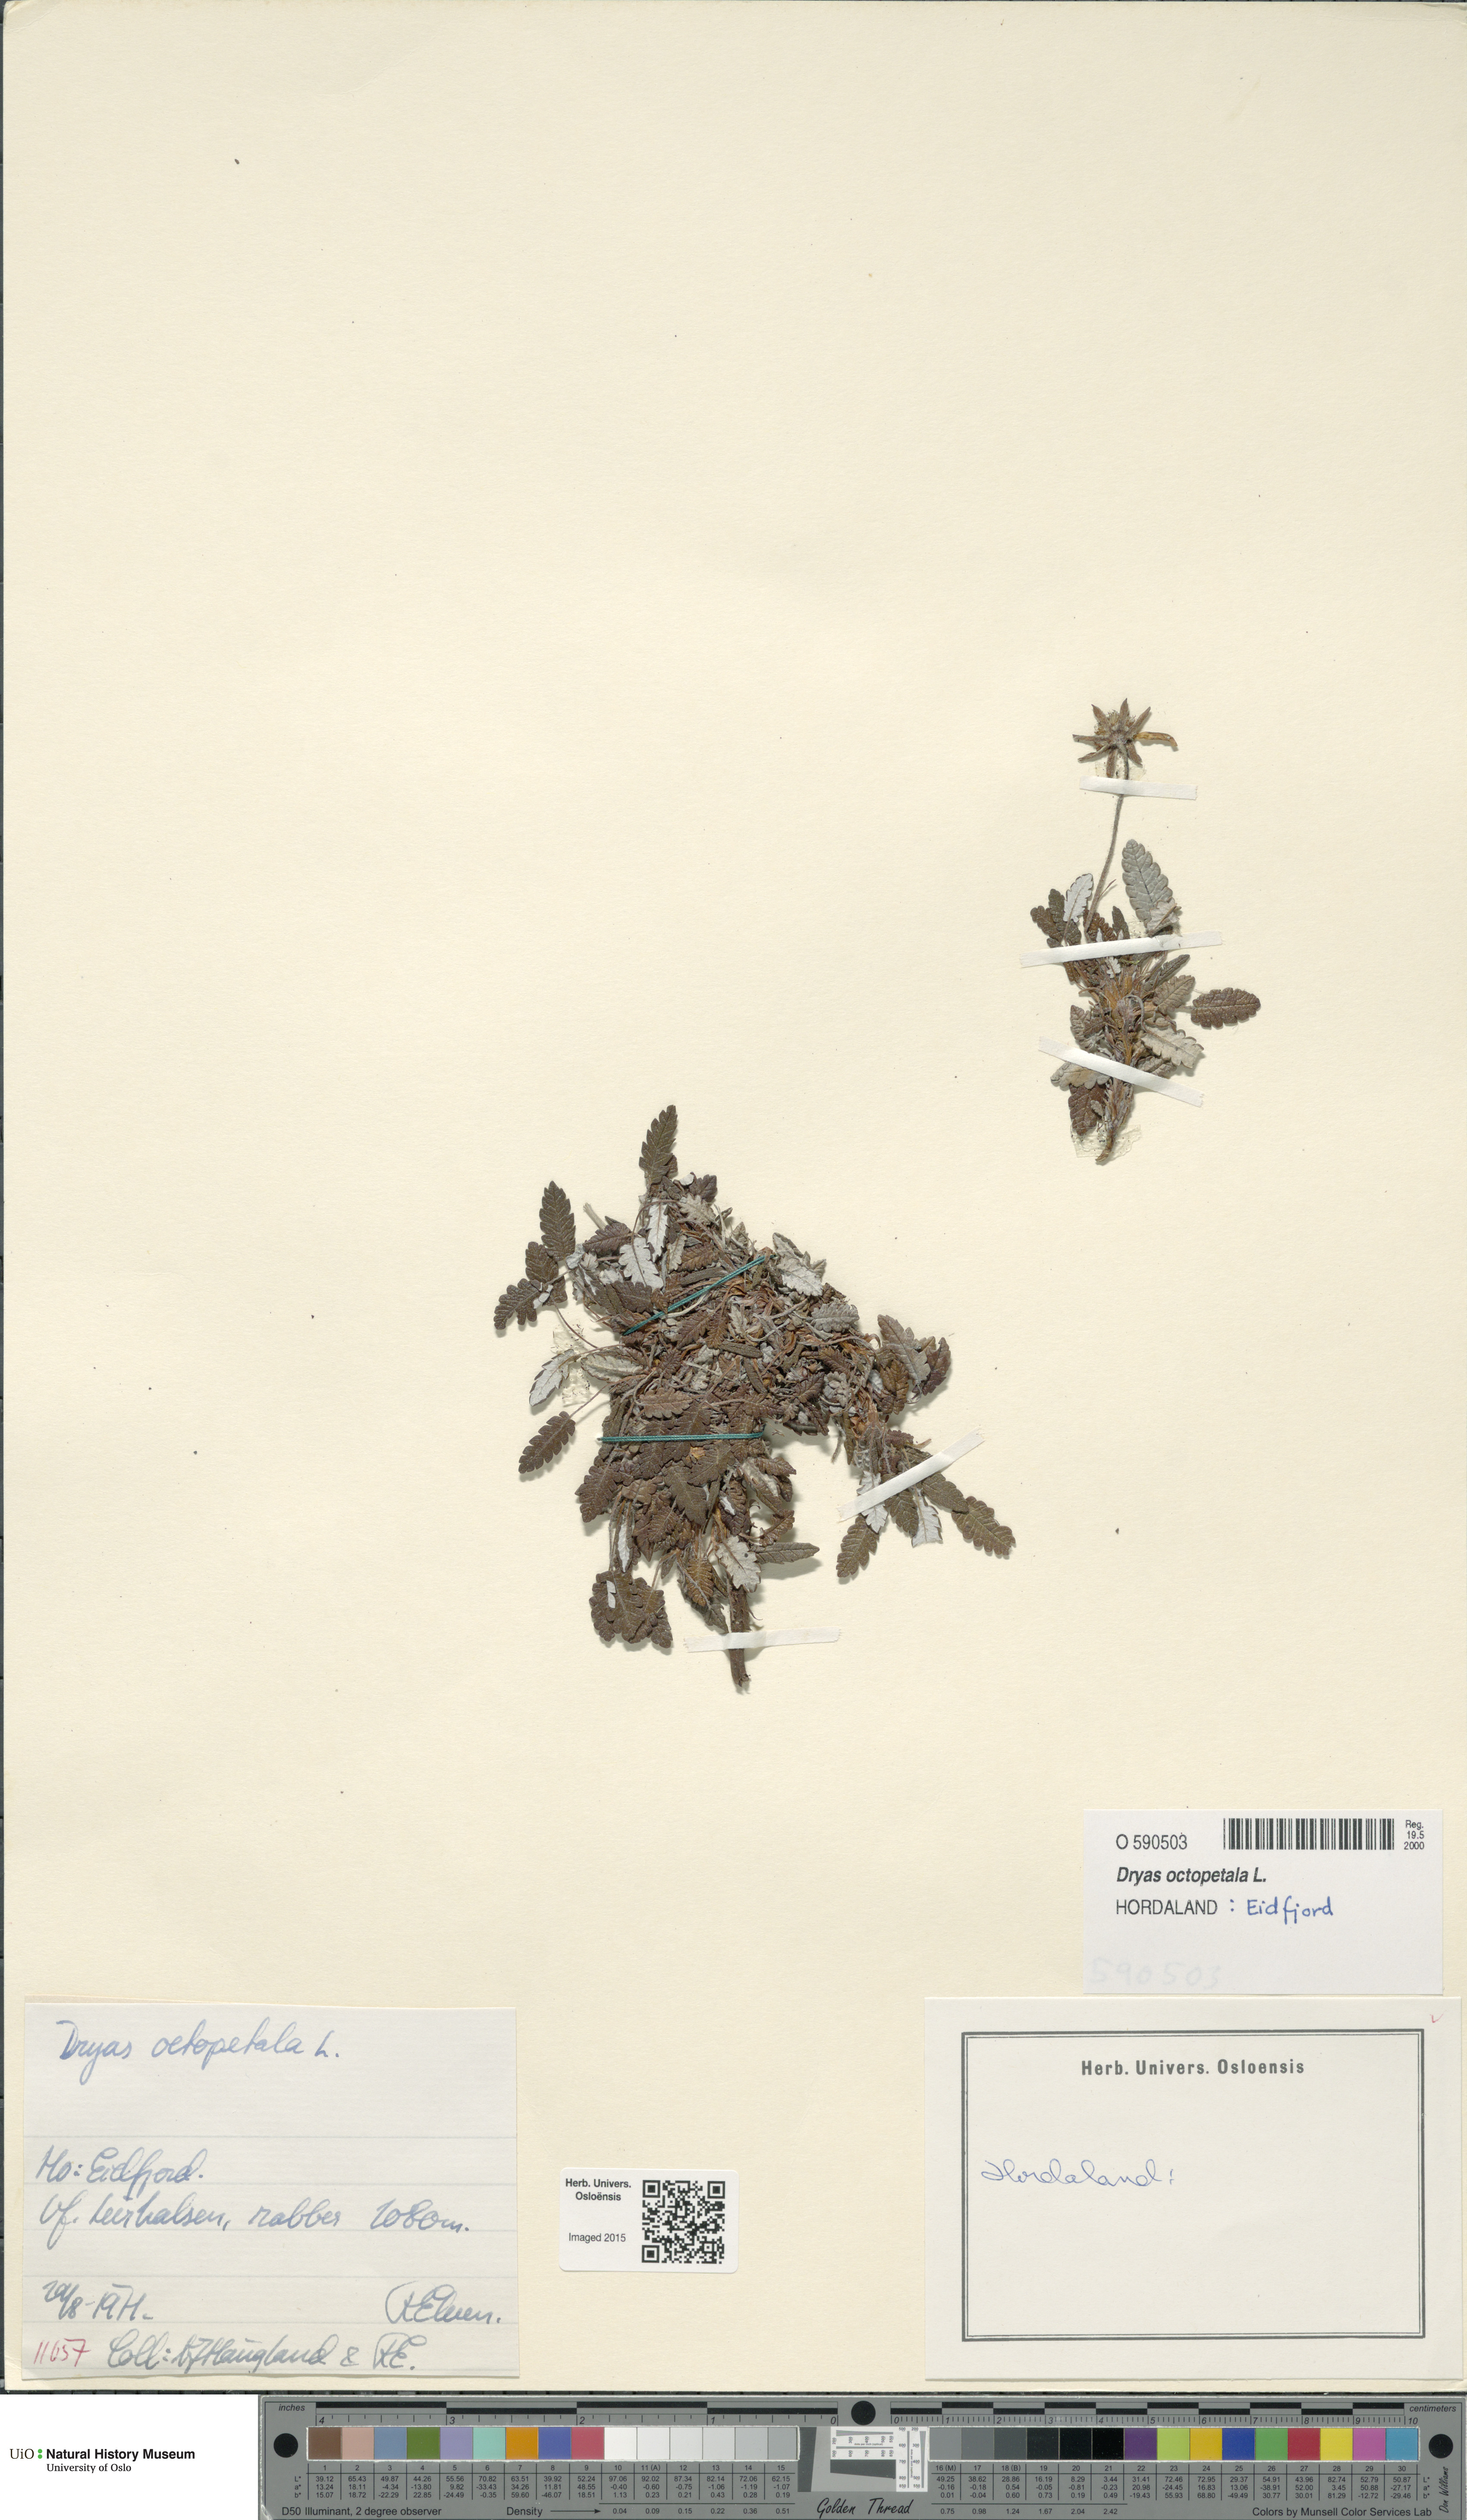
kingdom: Plantae
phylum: Tracheophyta
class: Magnoliopsida
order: Rosales
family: Rosaceae
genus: Dryas
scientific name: Dryas octopetala
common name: Eight-petal mountain-avens
